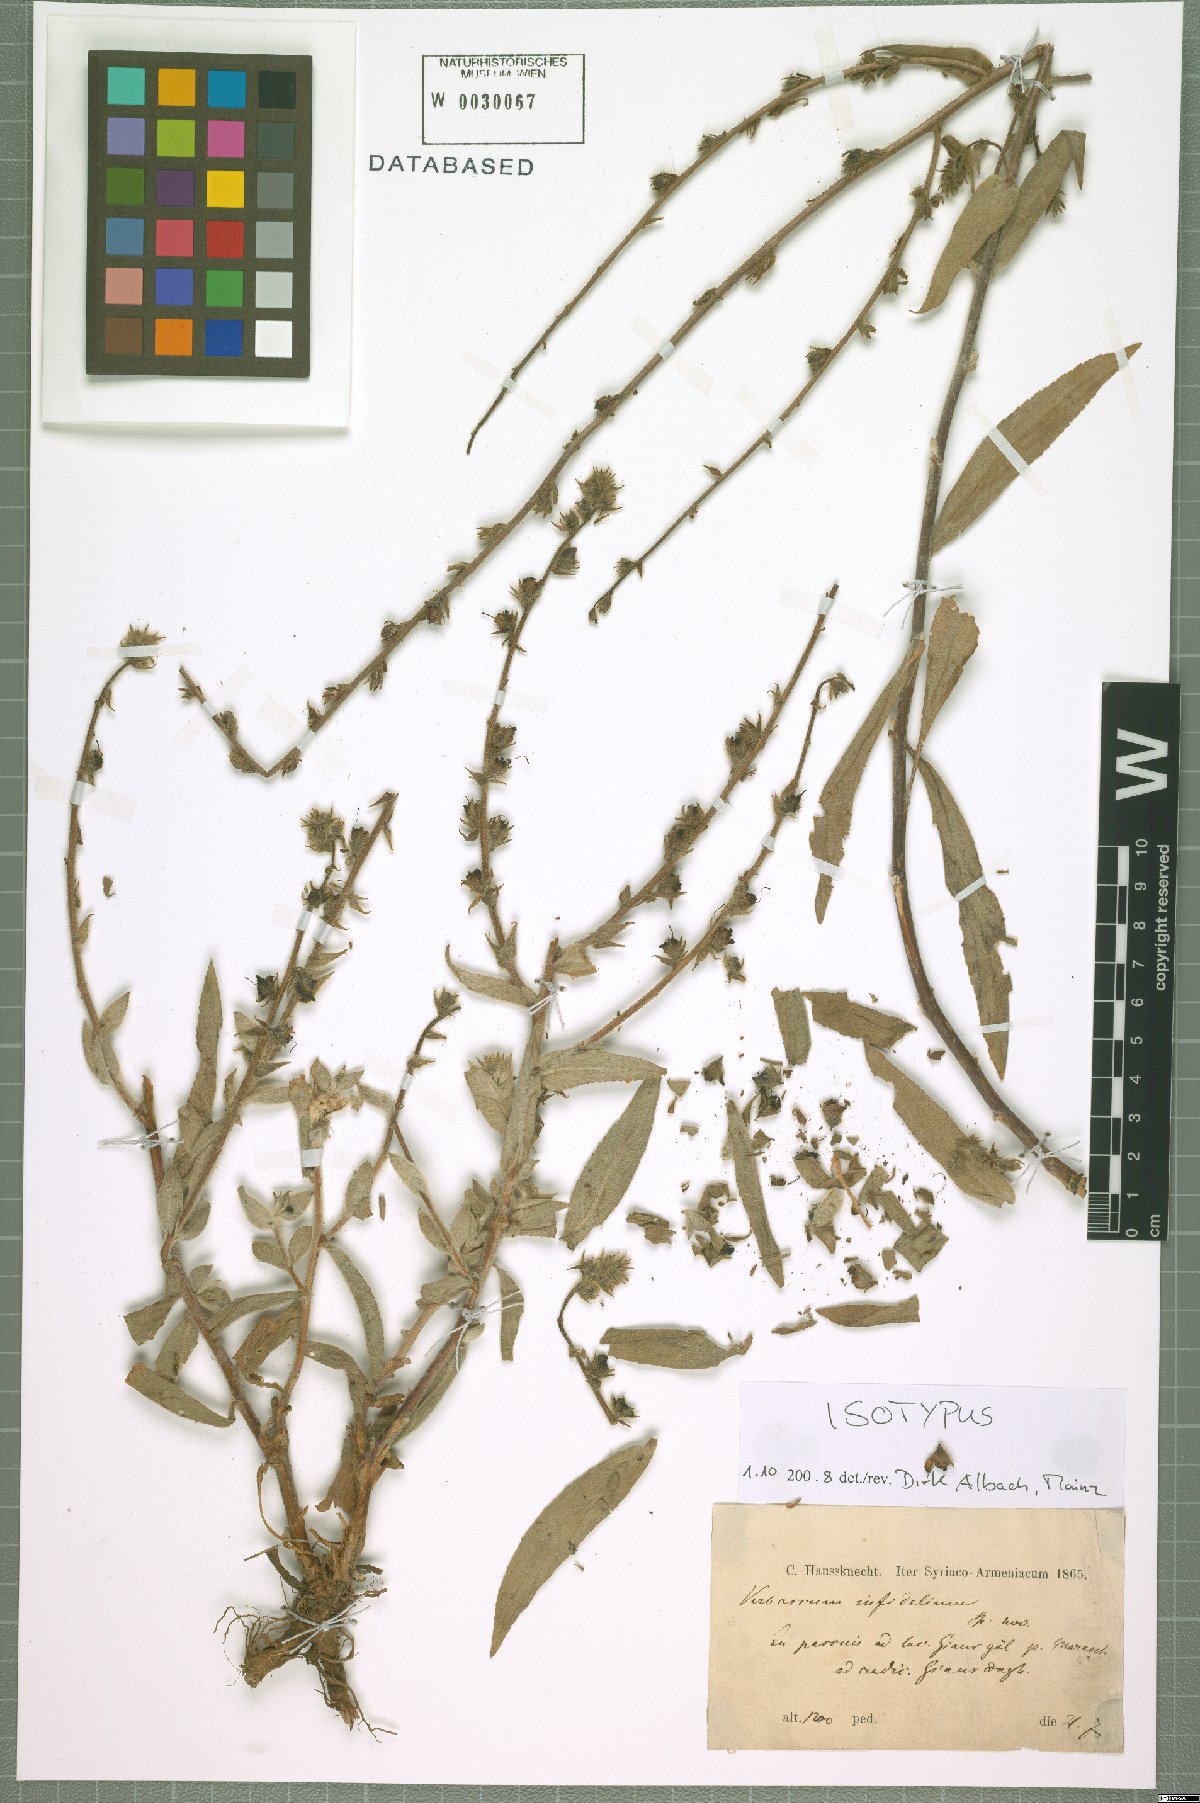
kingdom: Plantae
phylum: Tracheophyta
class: Magnoliopsida
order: Lamiales
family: Scrophulariaceae
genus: Verbascum
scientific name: Verbascum infidelium
